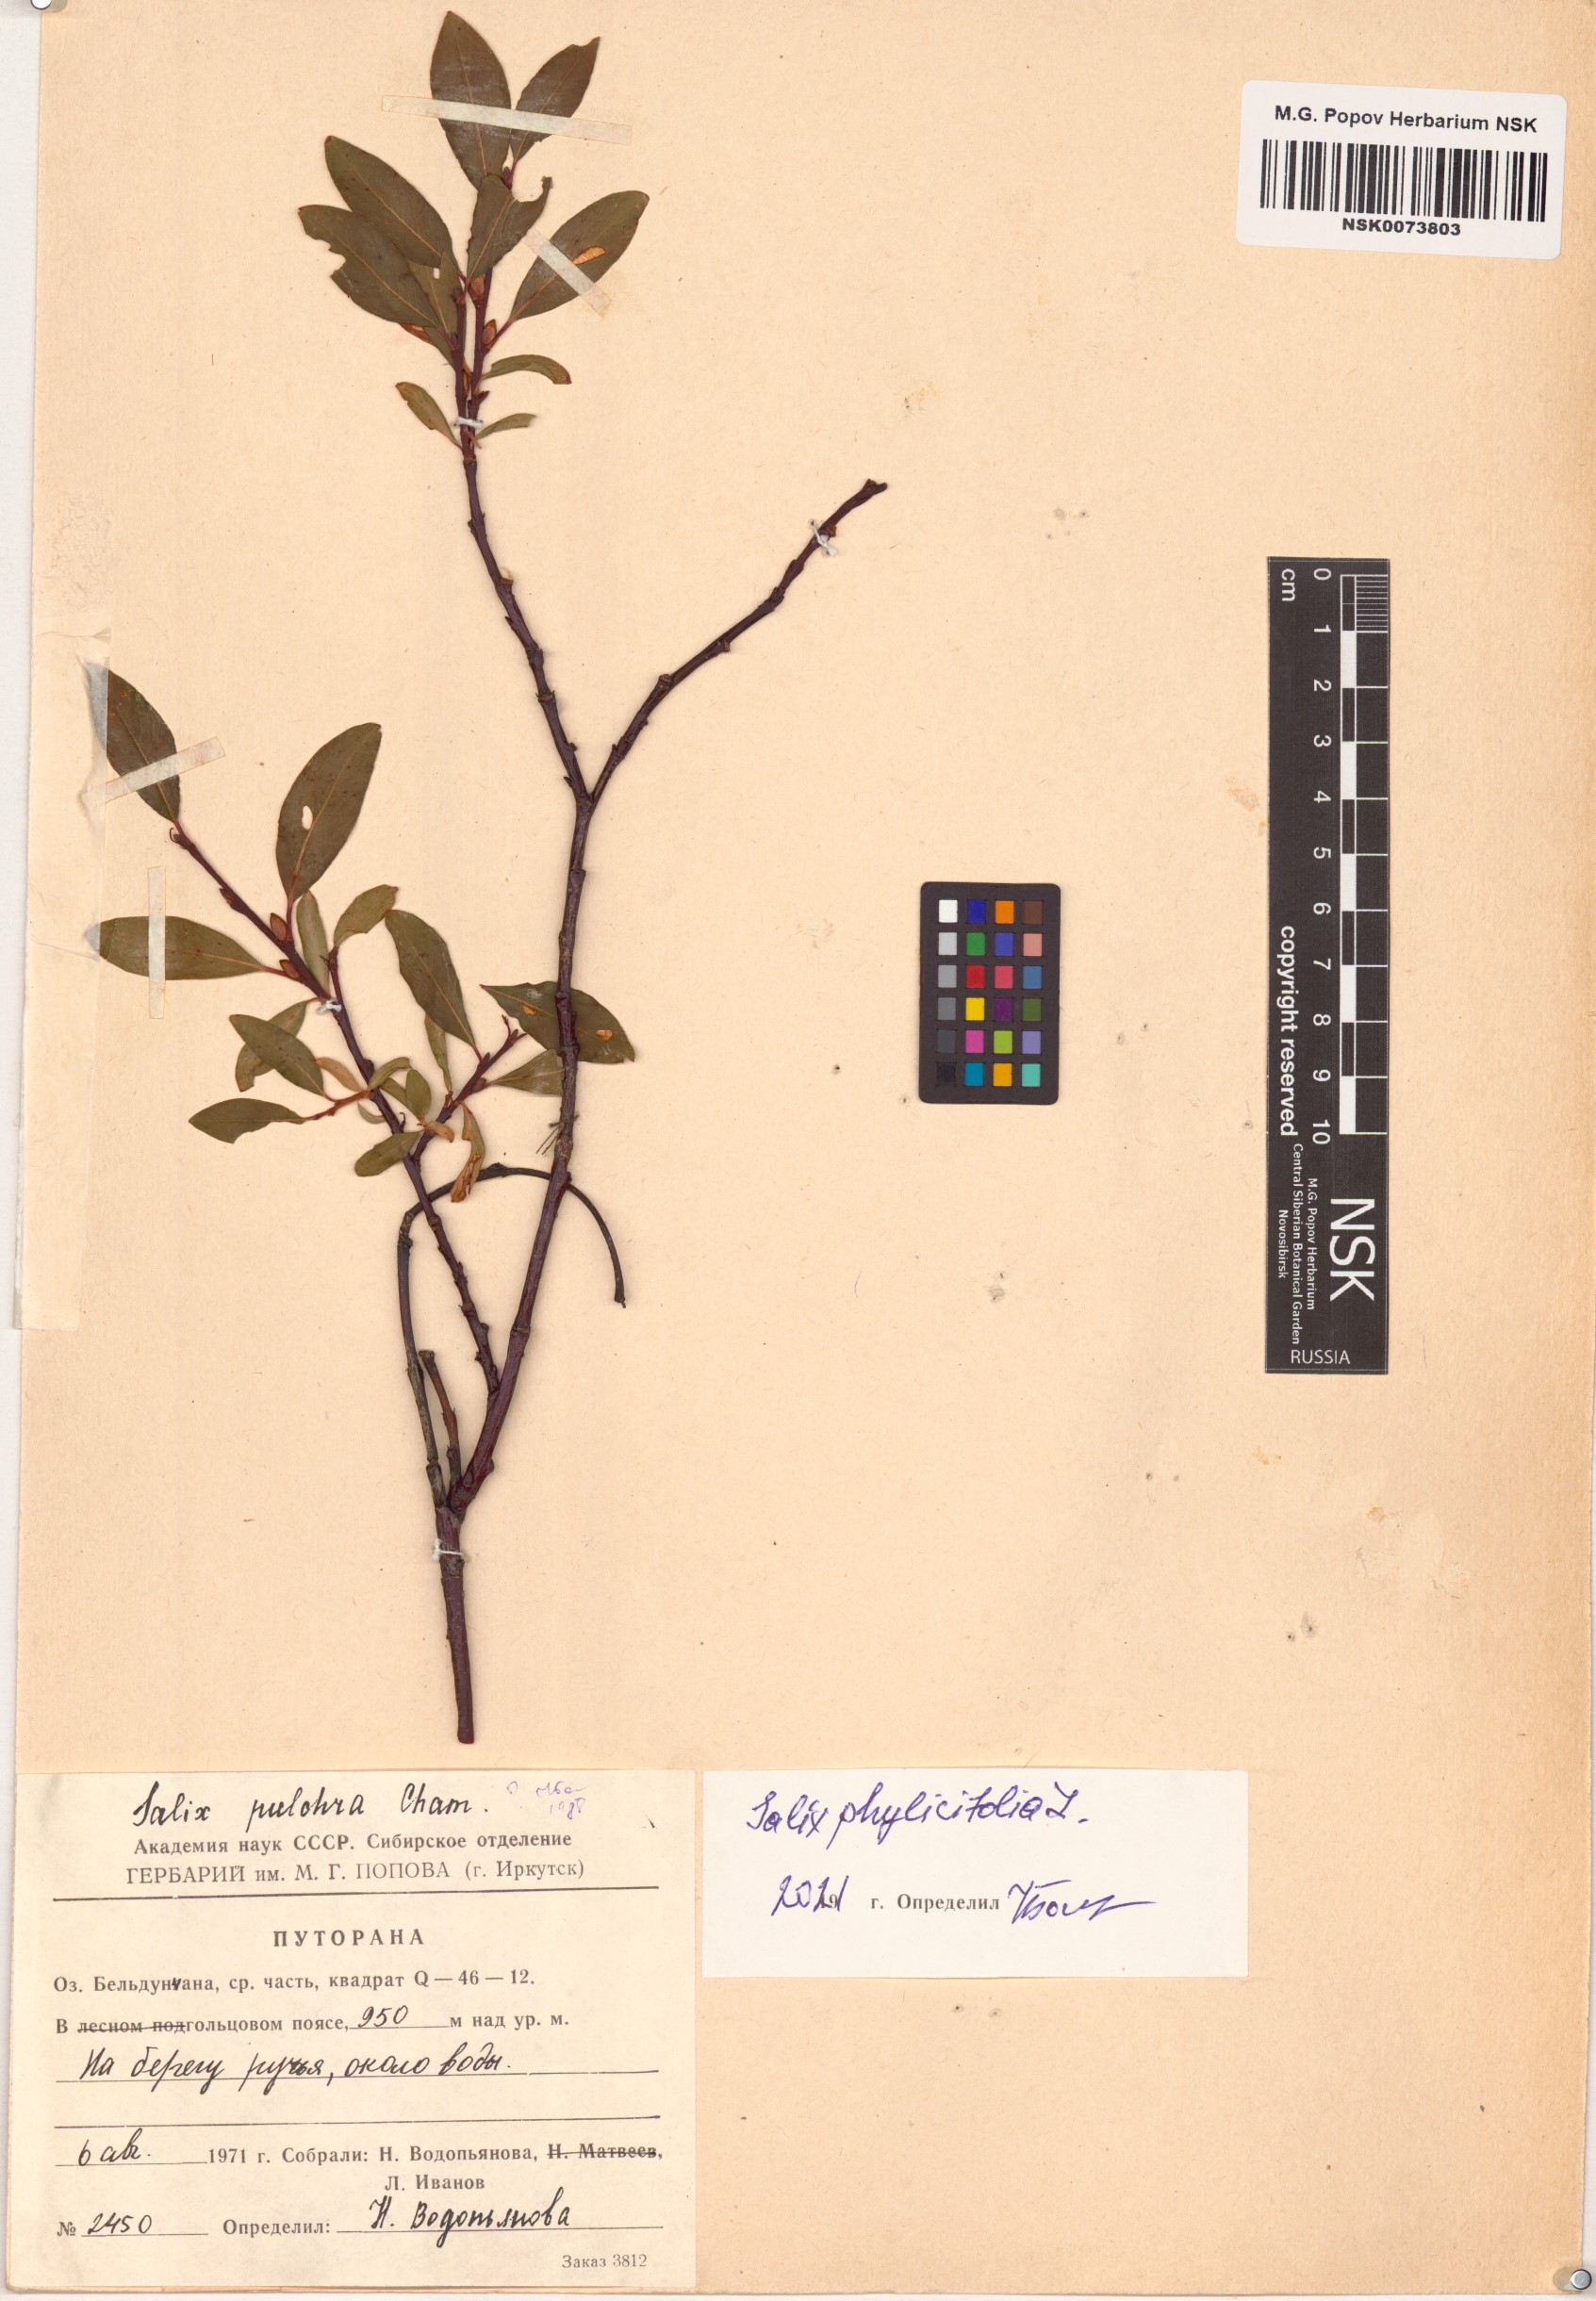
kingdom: Plantae
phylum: Tracheophyta
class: Magnoliopsida
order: Malpighiales
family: Salicaceae
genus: Salix
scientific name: Salix phylicifolia
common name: Tea-leaved willow
